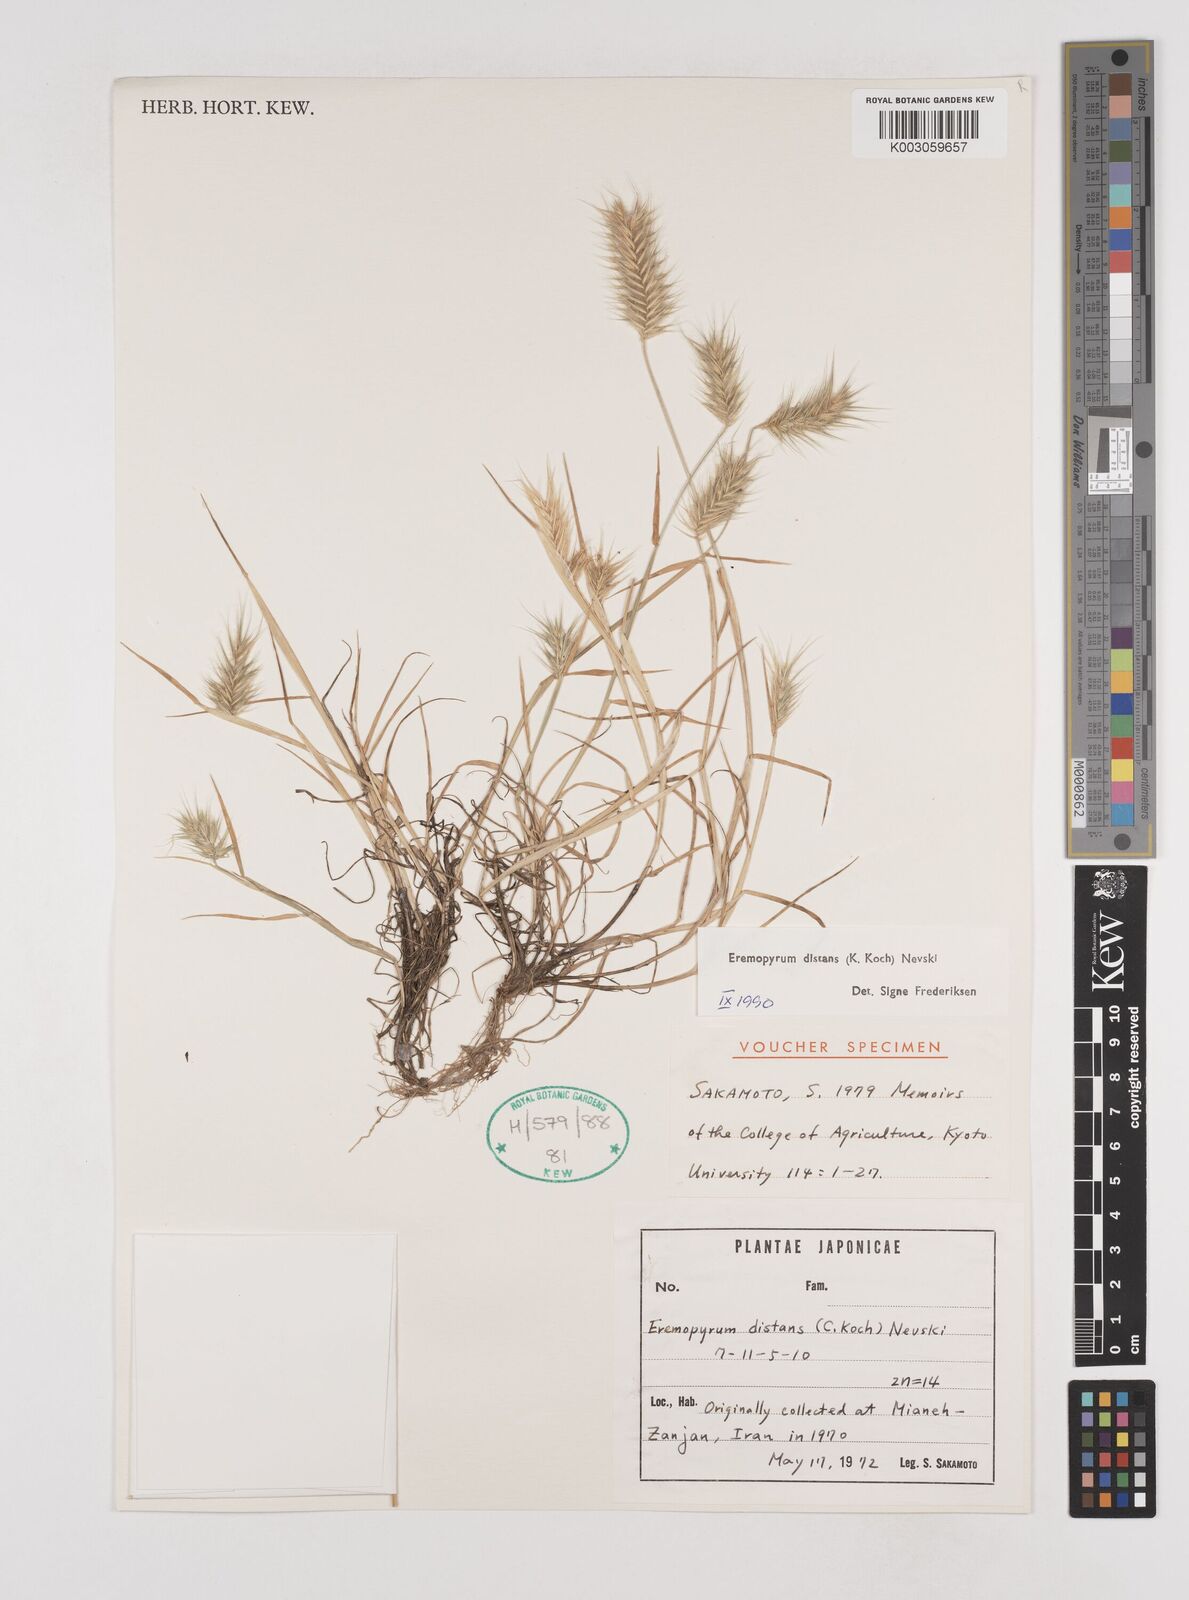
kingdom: Plantae
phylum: Tracheophyta
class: Liliopsida
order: Poales
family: Poaceae
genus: Eremopyrum
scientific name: Eremopyrum distans
